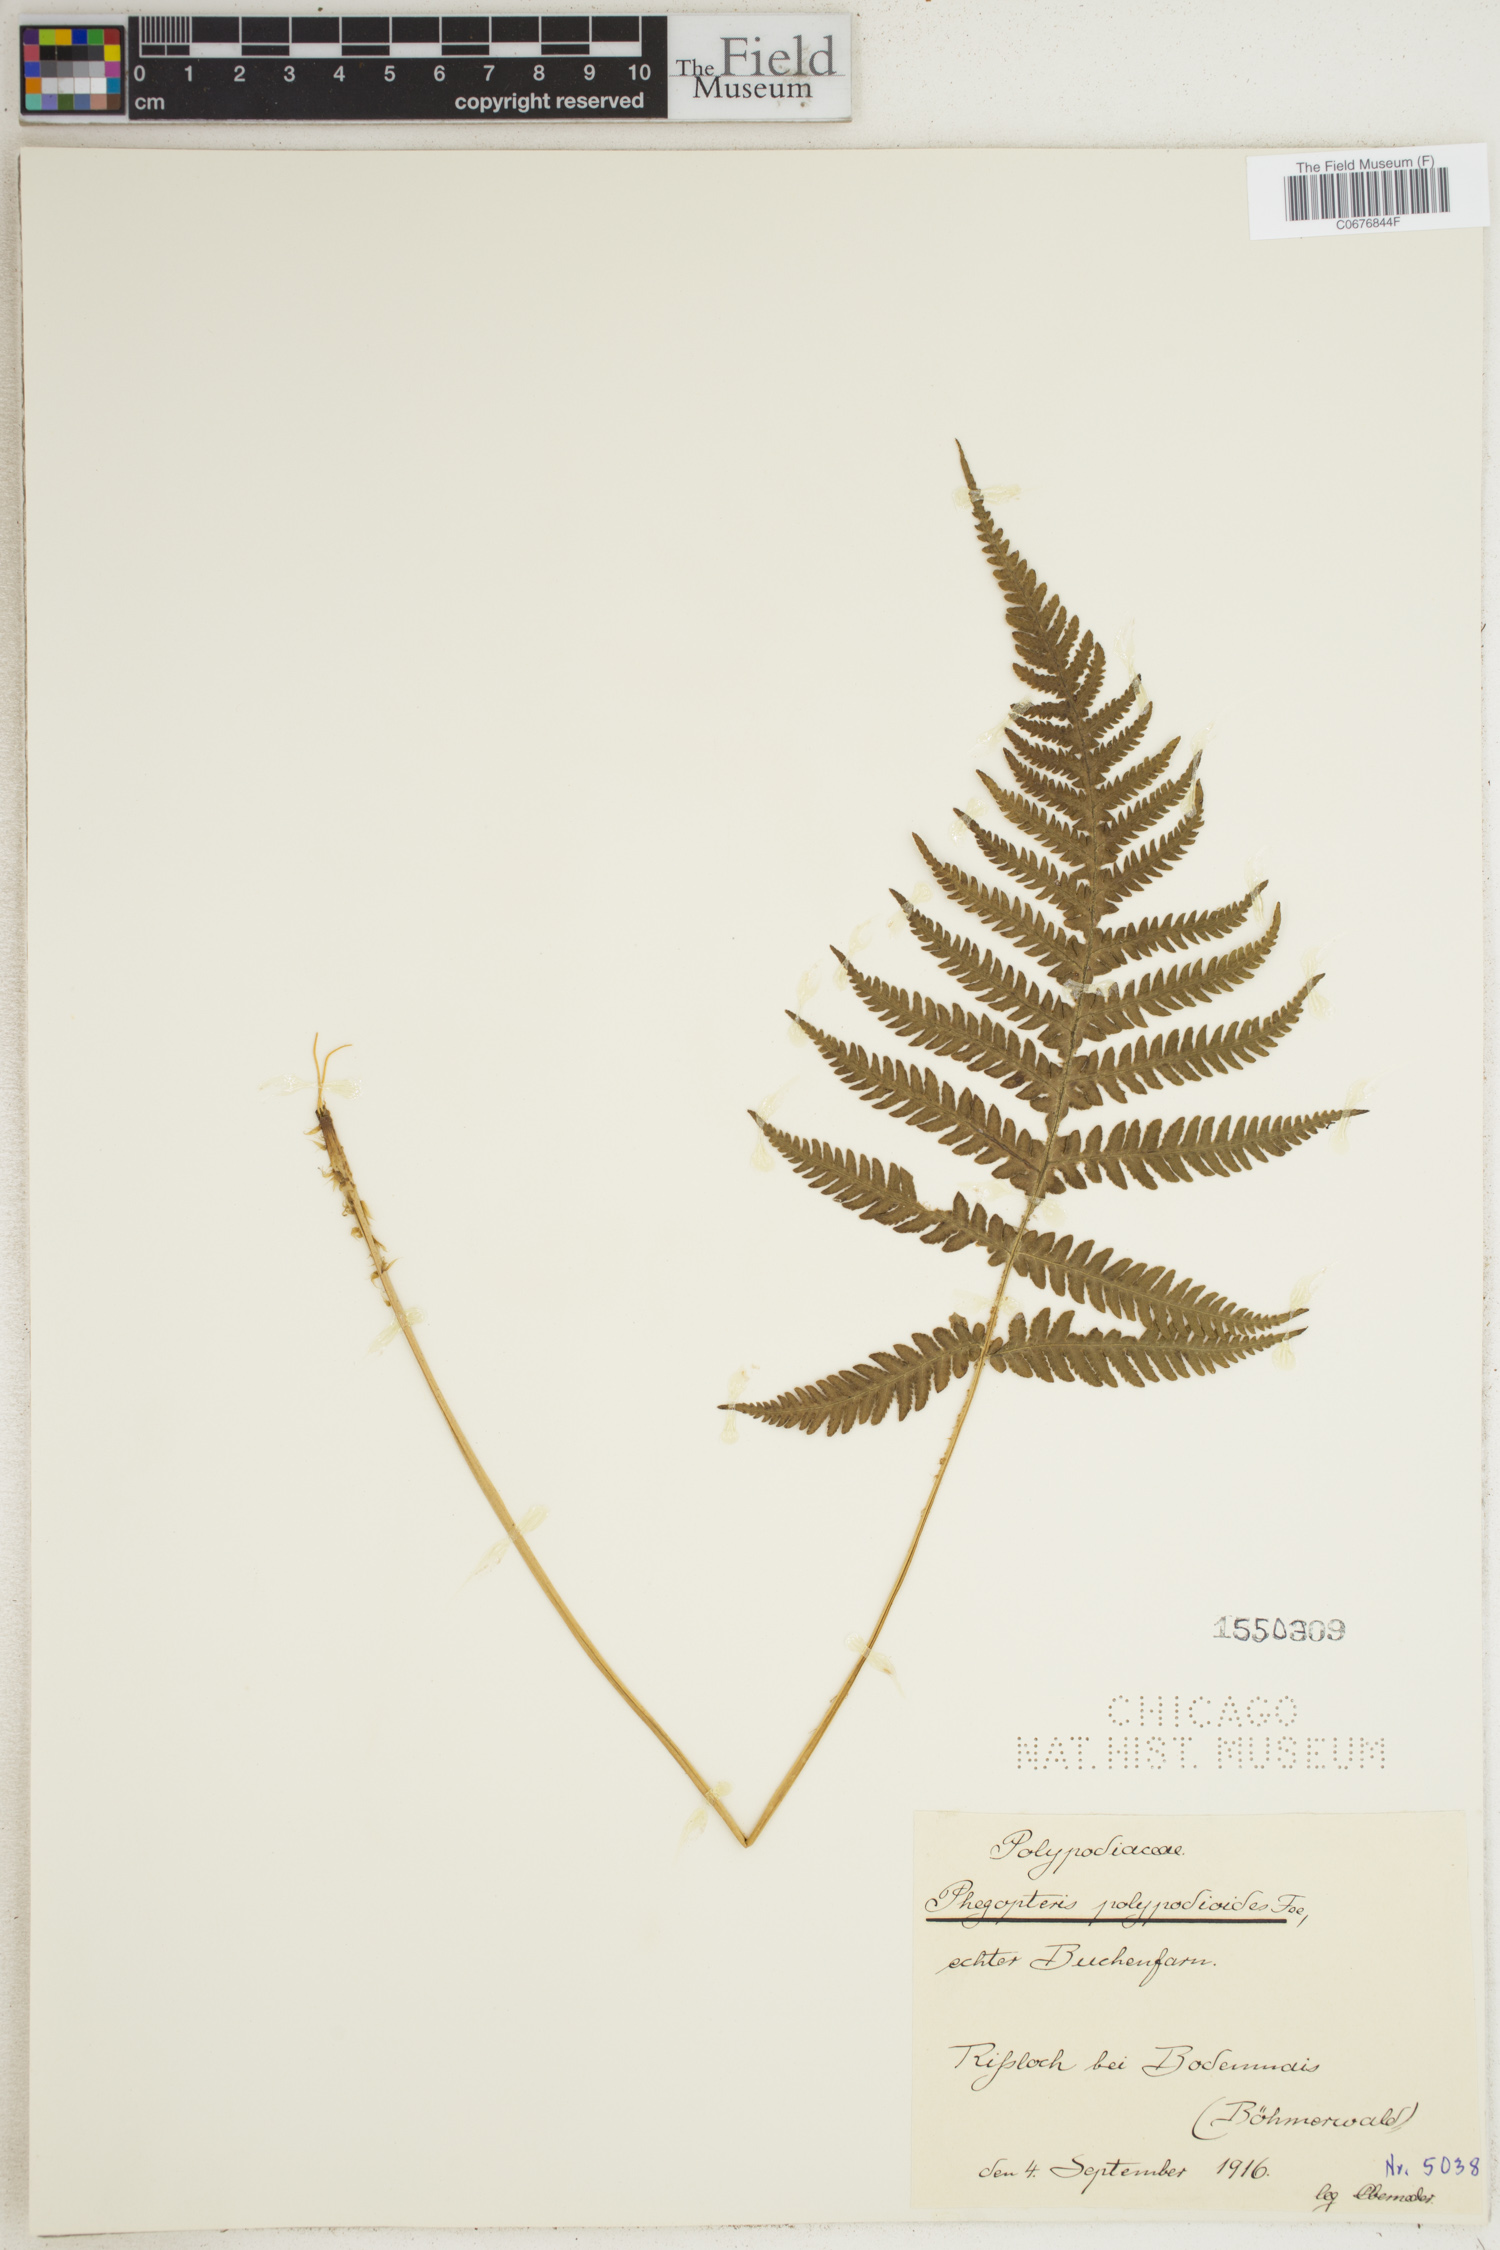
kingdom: Plantae
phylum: Tracheophyta
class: Polypodiopsida
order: Polypodiales
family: Thelypteridaceae
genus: Phegopteris
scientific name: Phegopteris connectilis
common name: Beech fern
